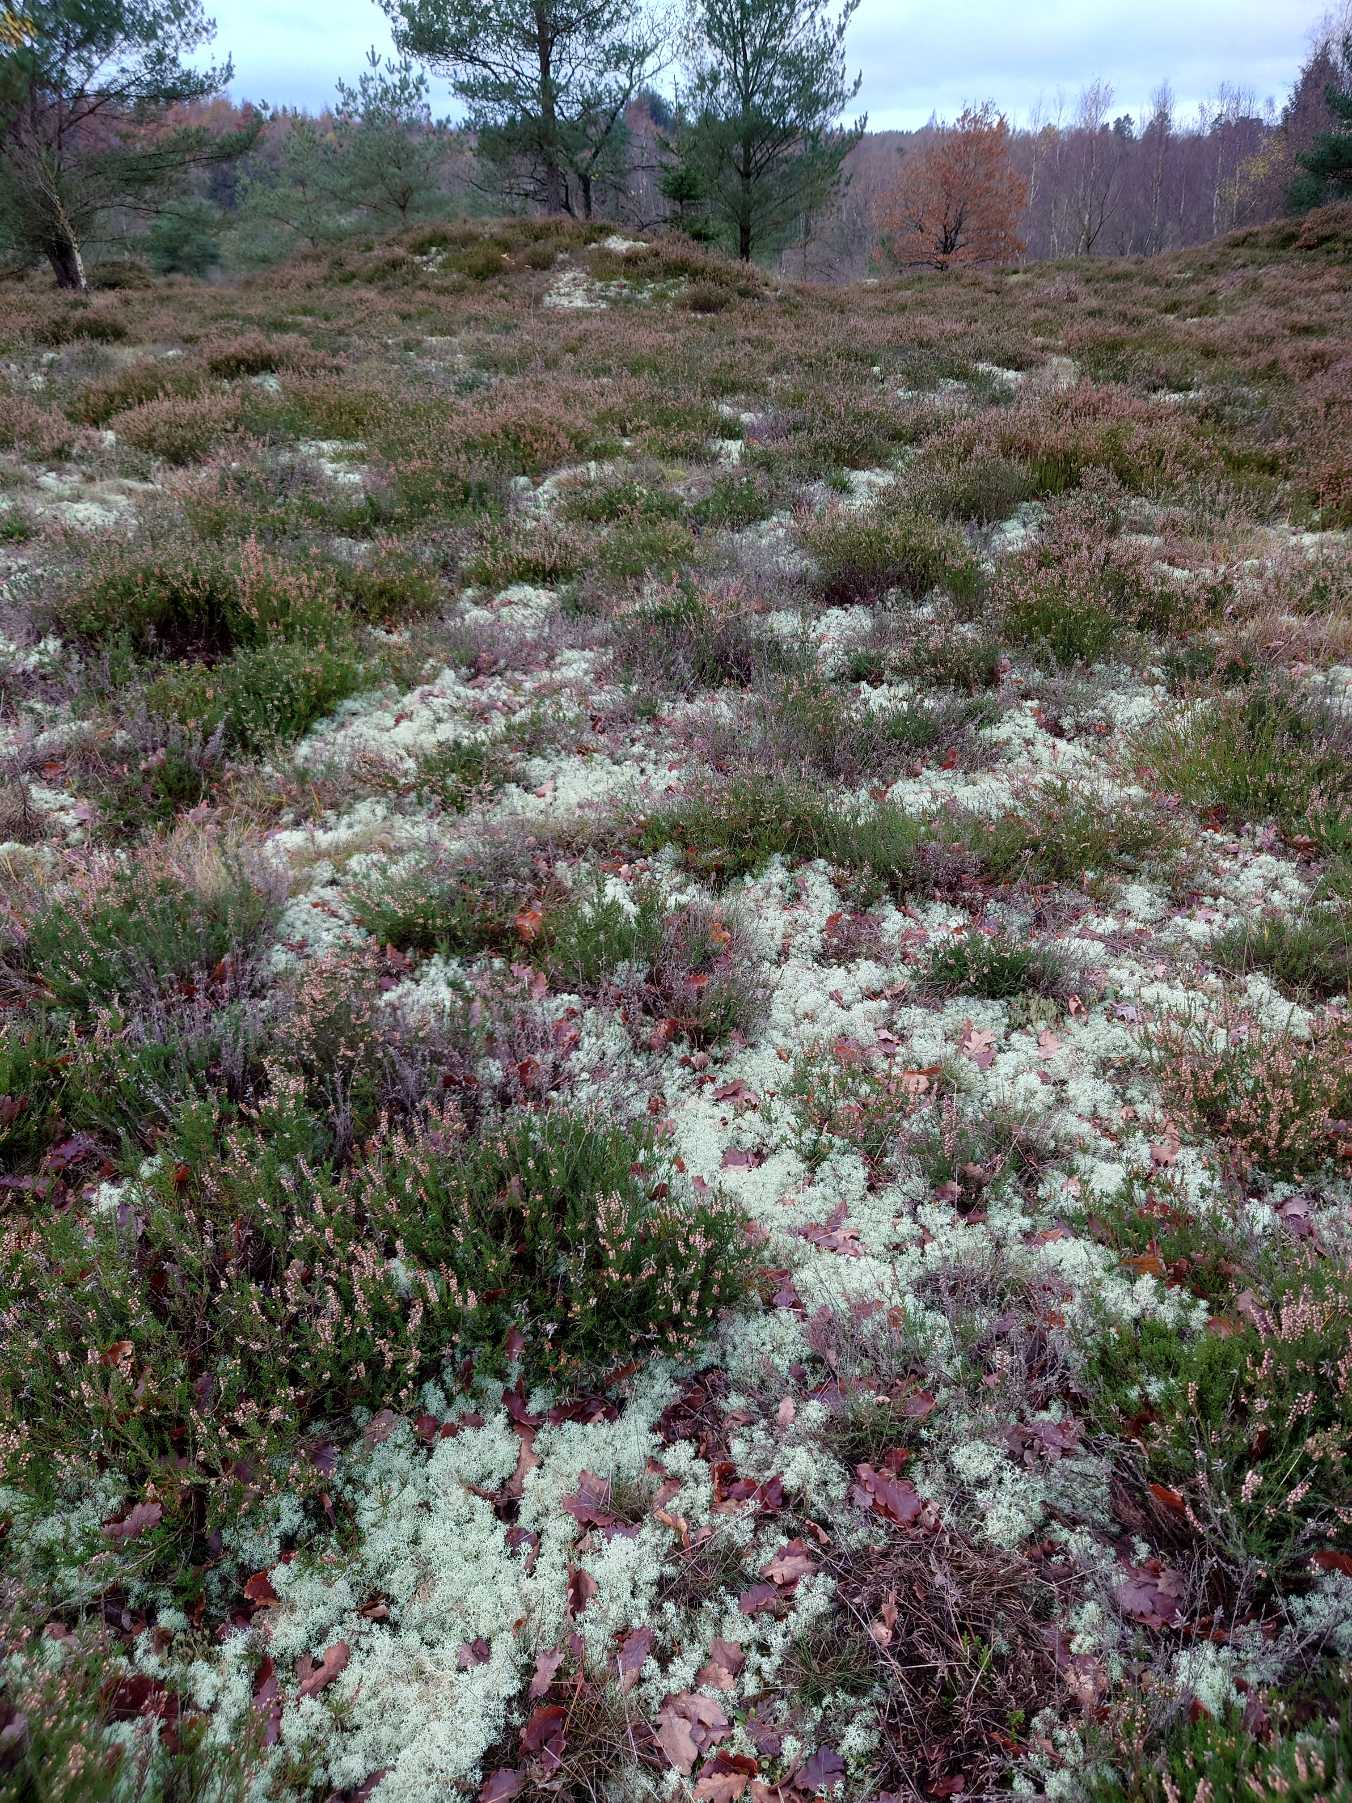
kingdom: Fungi
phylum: Ascomycota
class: Lecanoromycetes
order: Lecanorales
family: Cladoniaceae
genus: Cladonia
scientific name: Cladonia portentosa
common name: Hede-rensdyrlav
